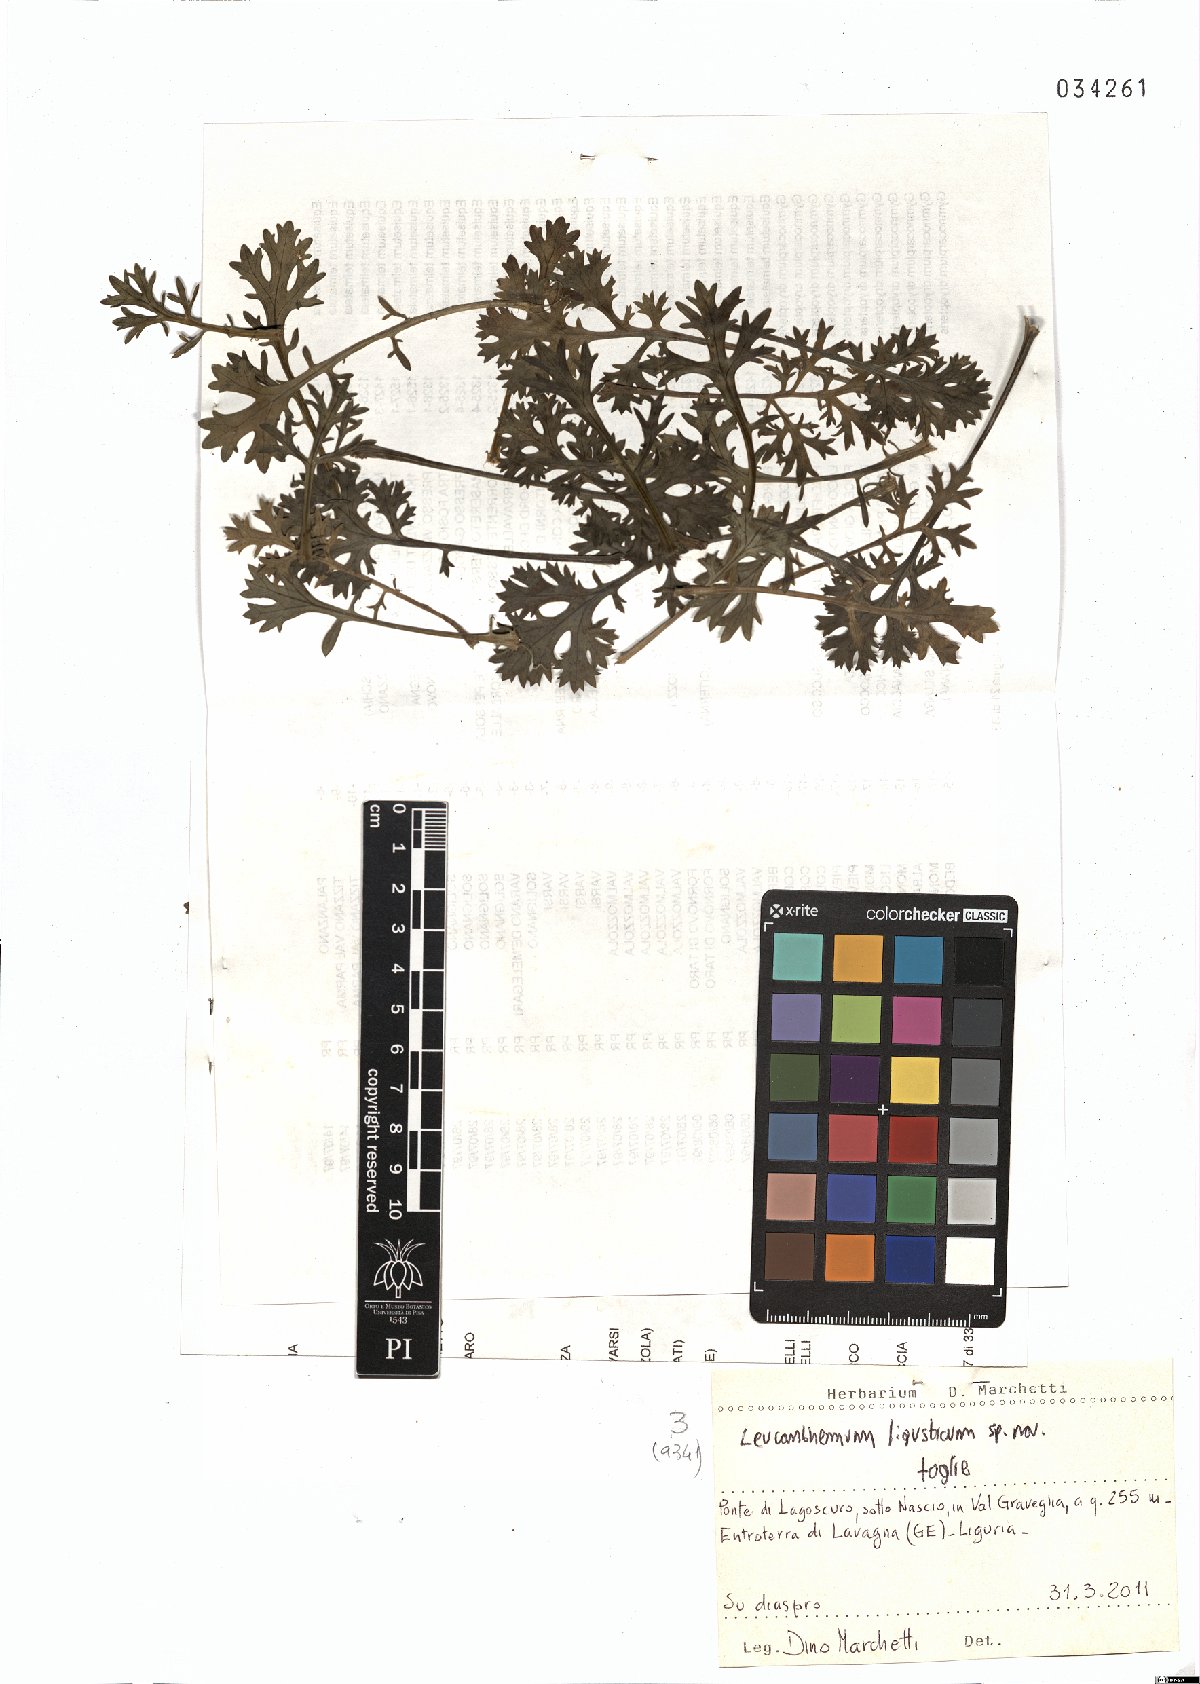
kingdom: Plantae
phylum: Tracheophyta
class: Magnoliopsida
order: Asterales
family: Asteraceae
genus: Leucanthemum
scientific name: Leucanthemum ligusticum
